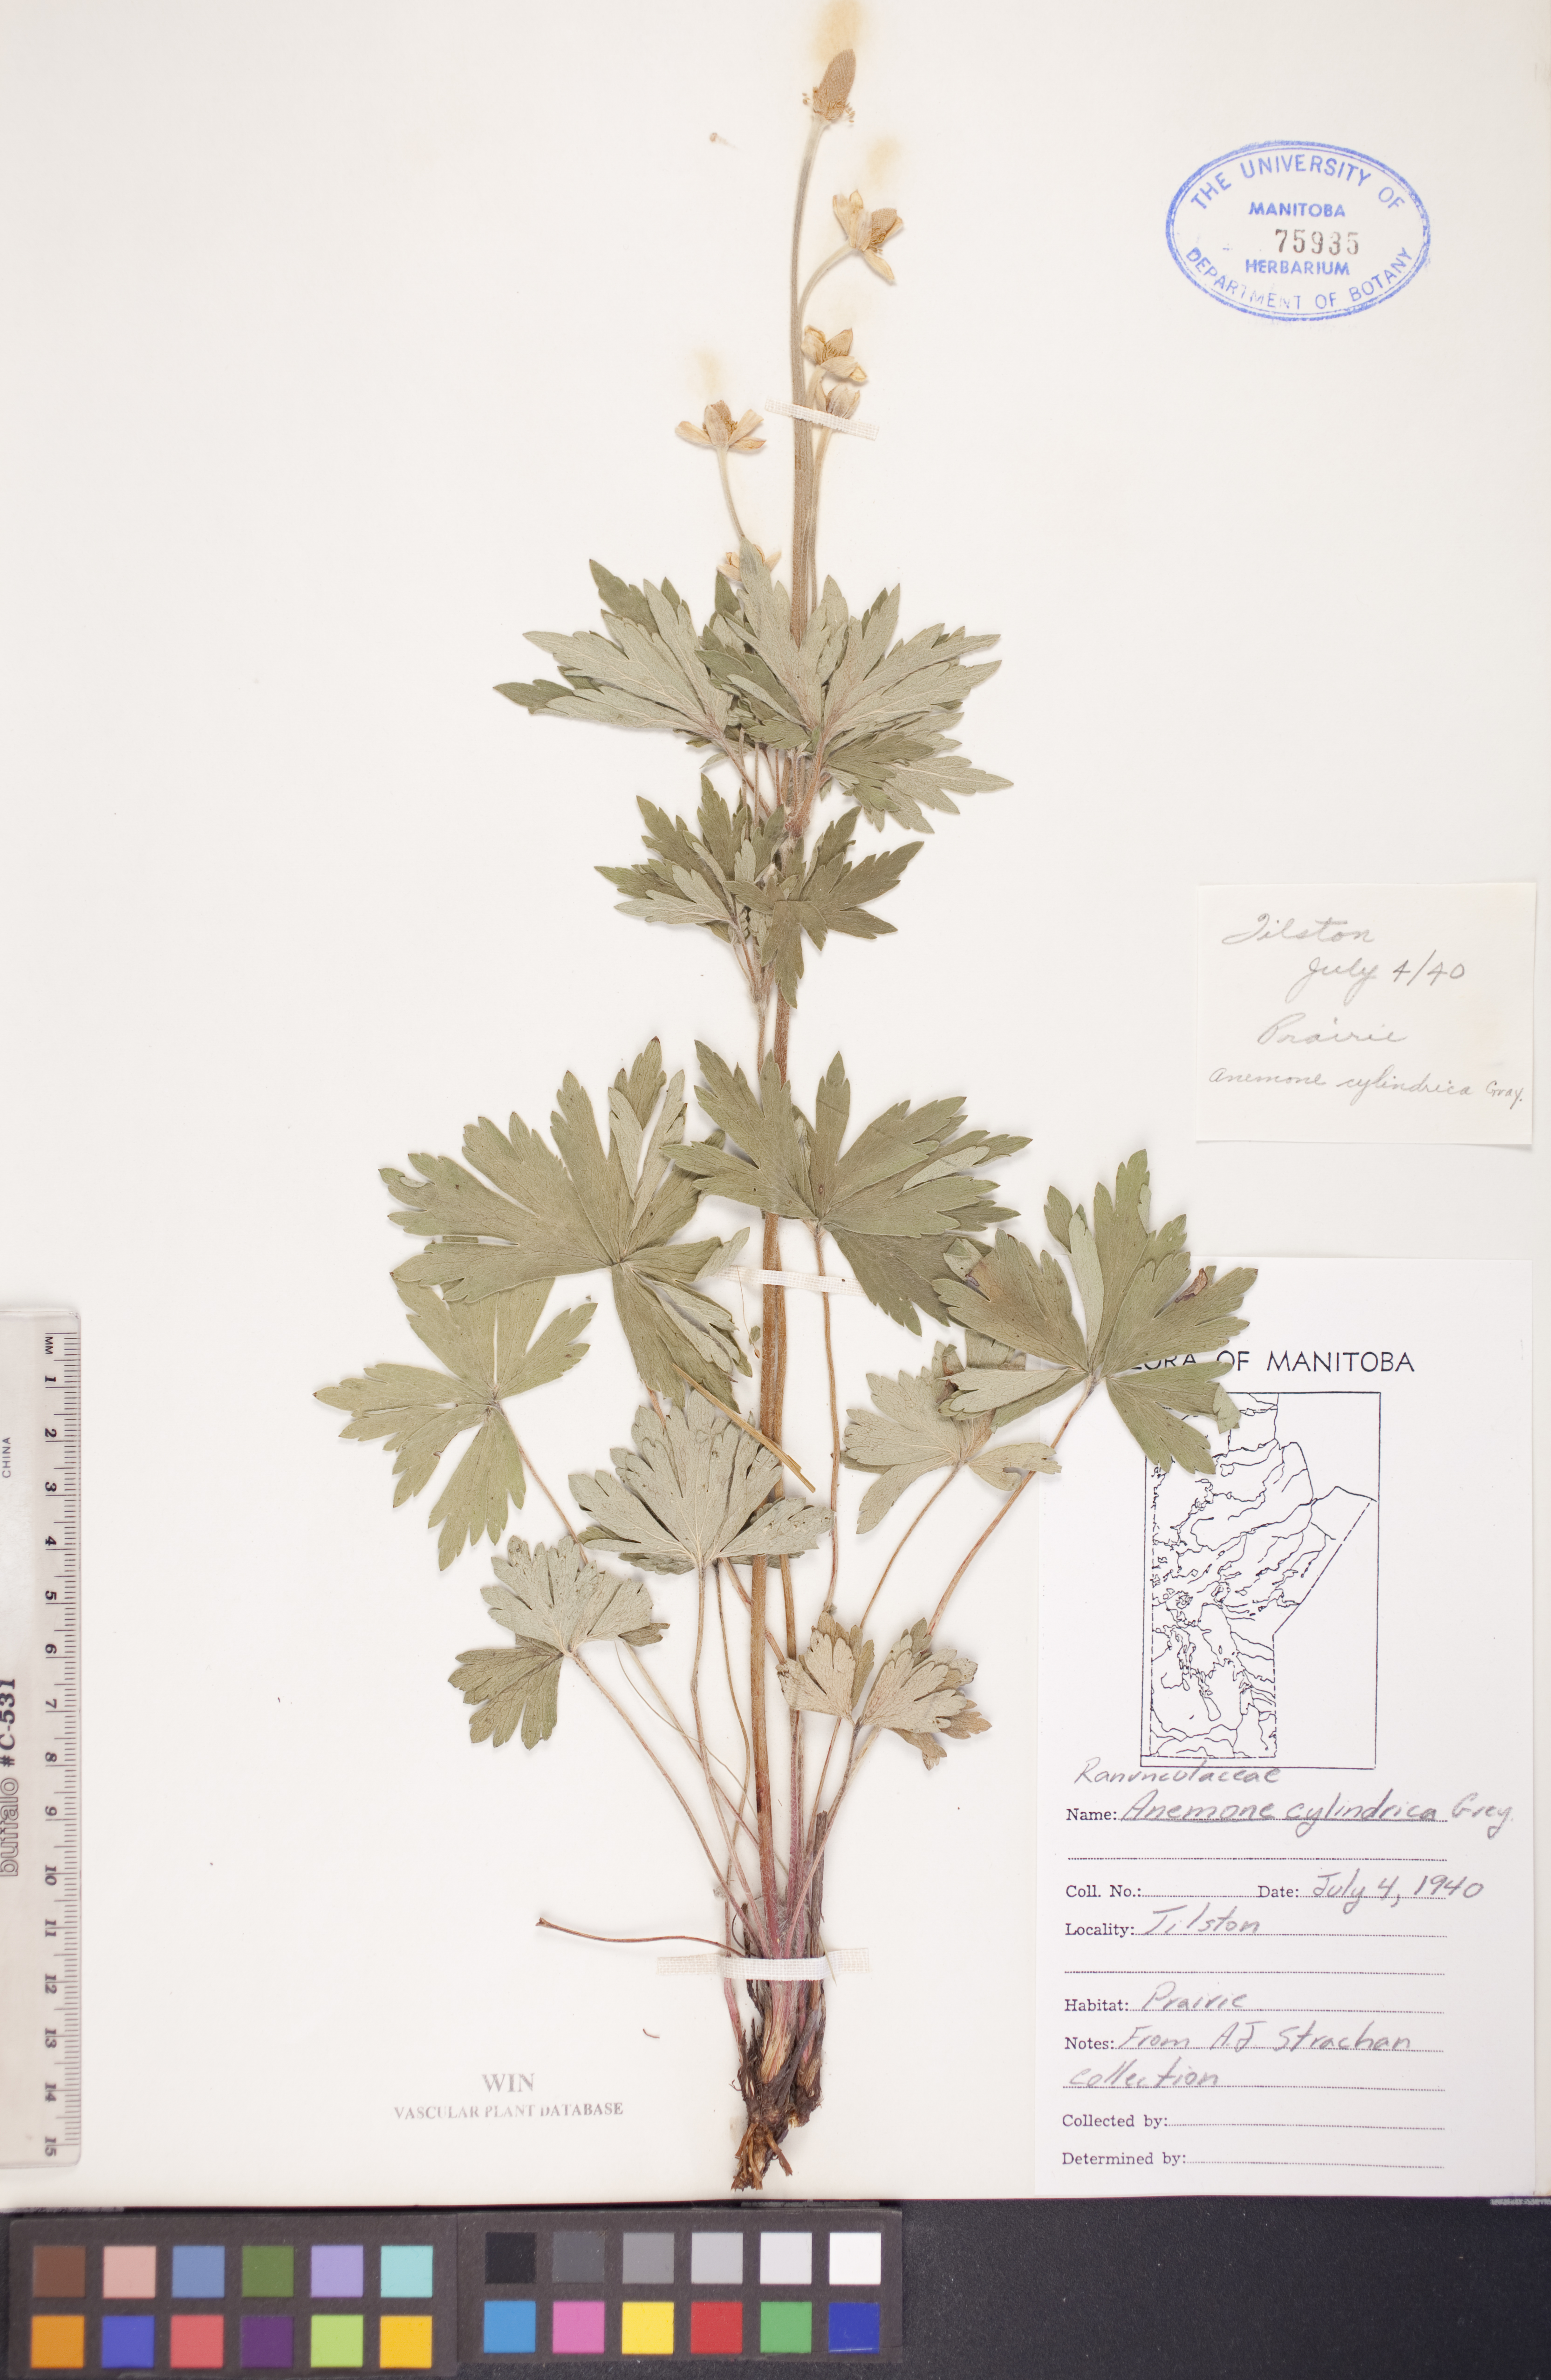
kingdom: Plantae
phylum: Tracheophyta
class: Magnoliopsida
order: Ranunculales
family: Ranunculaceae
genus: Anemone
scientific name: Anemone cylindrica
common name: Candle anemone
